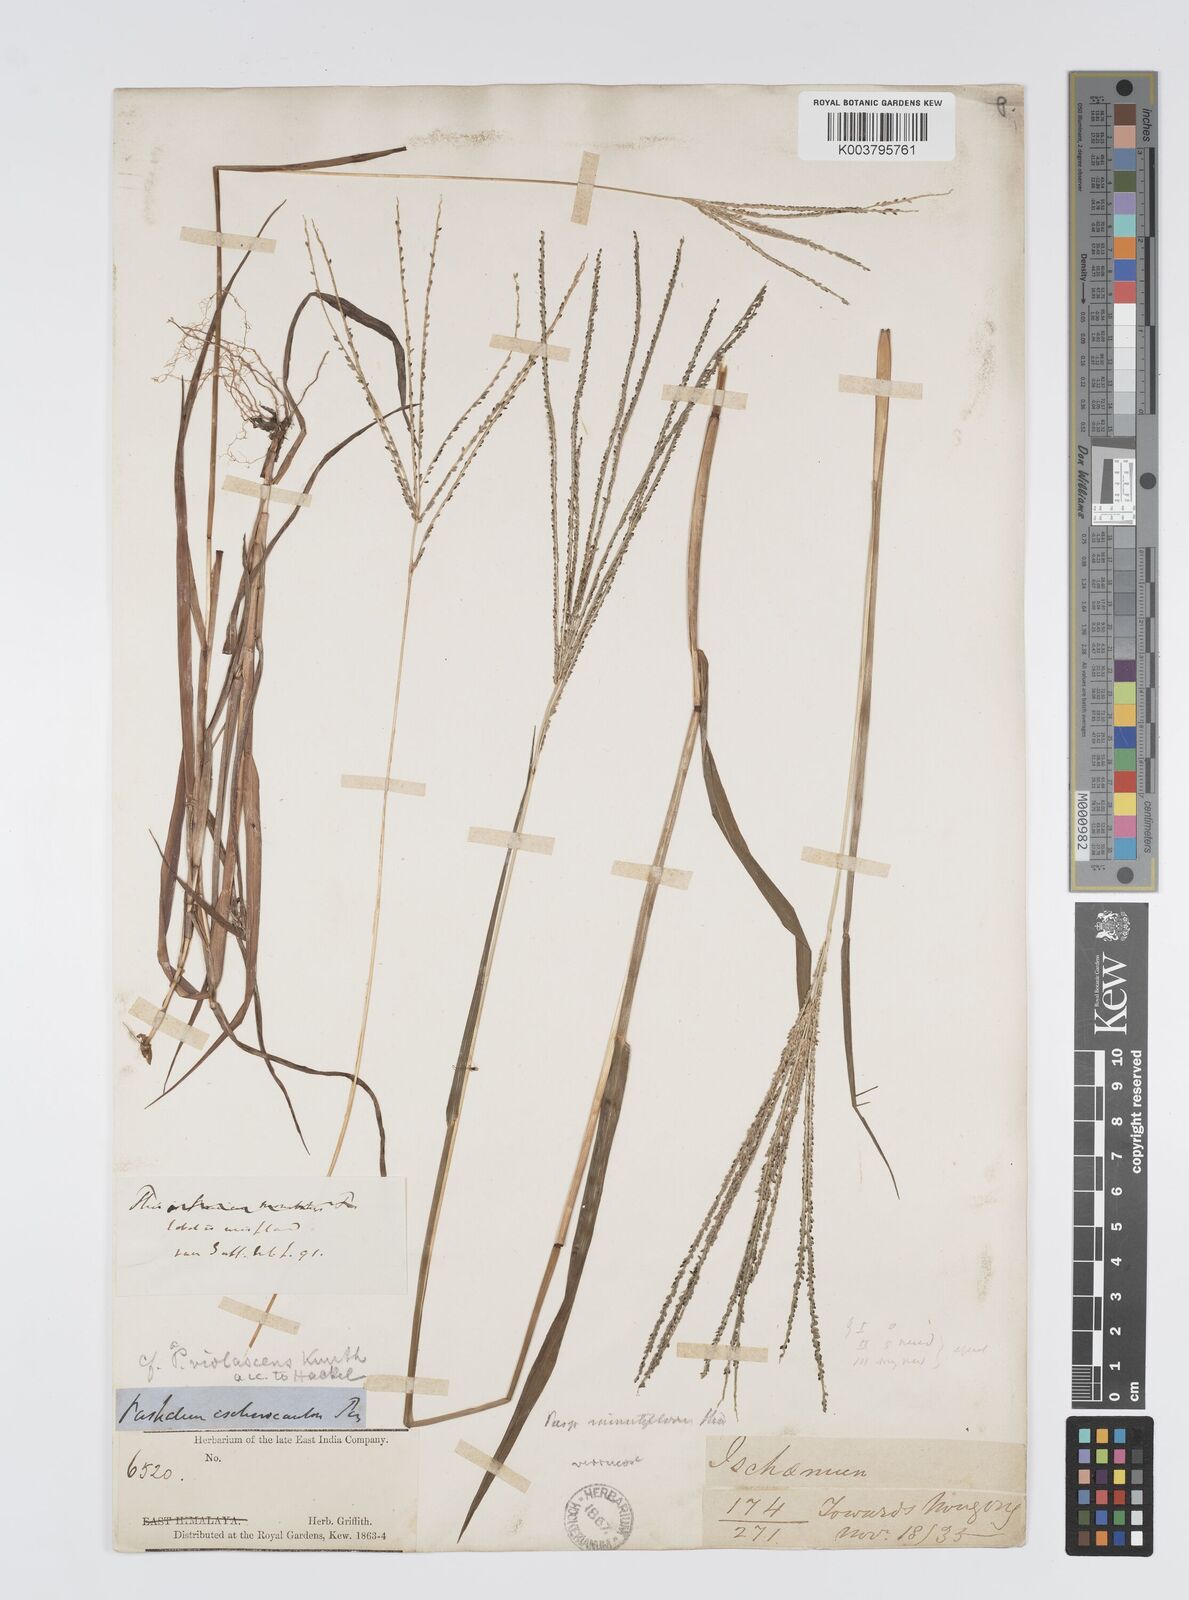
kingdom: Plantae
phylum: Tracheophyta
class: Liliopsida
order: Poales
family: Poaceae
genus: Digitaria
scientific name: Digitaria violascens
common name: Violet crabgrass
